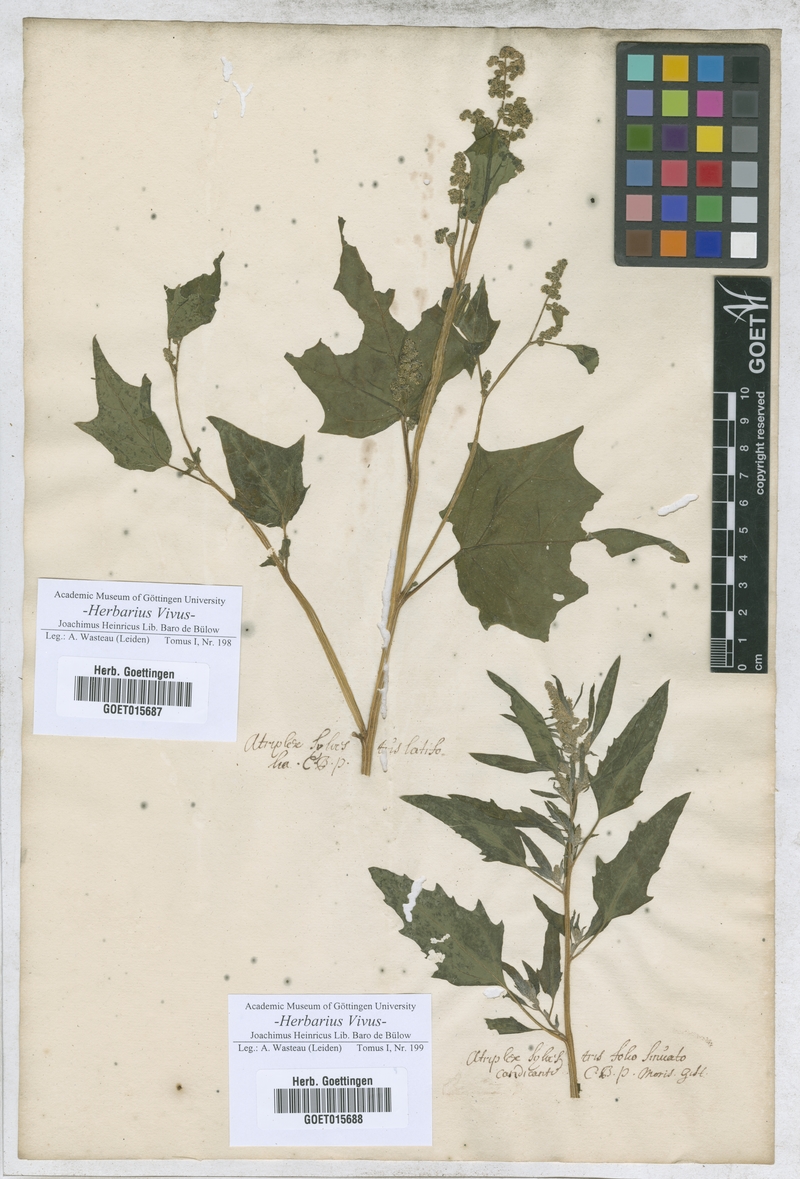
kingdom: Plantae
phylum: Tracheophyta
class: Magnoliopsida
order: Caryophyllales
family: Amaranthaceae
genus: Atriplex
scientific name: Atriplex
